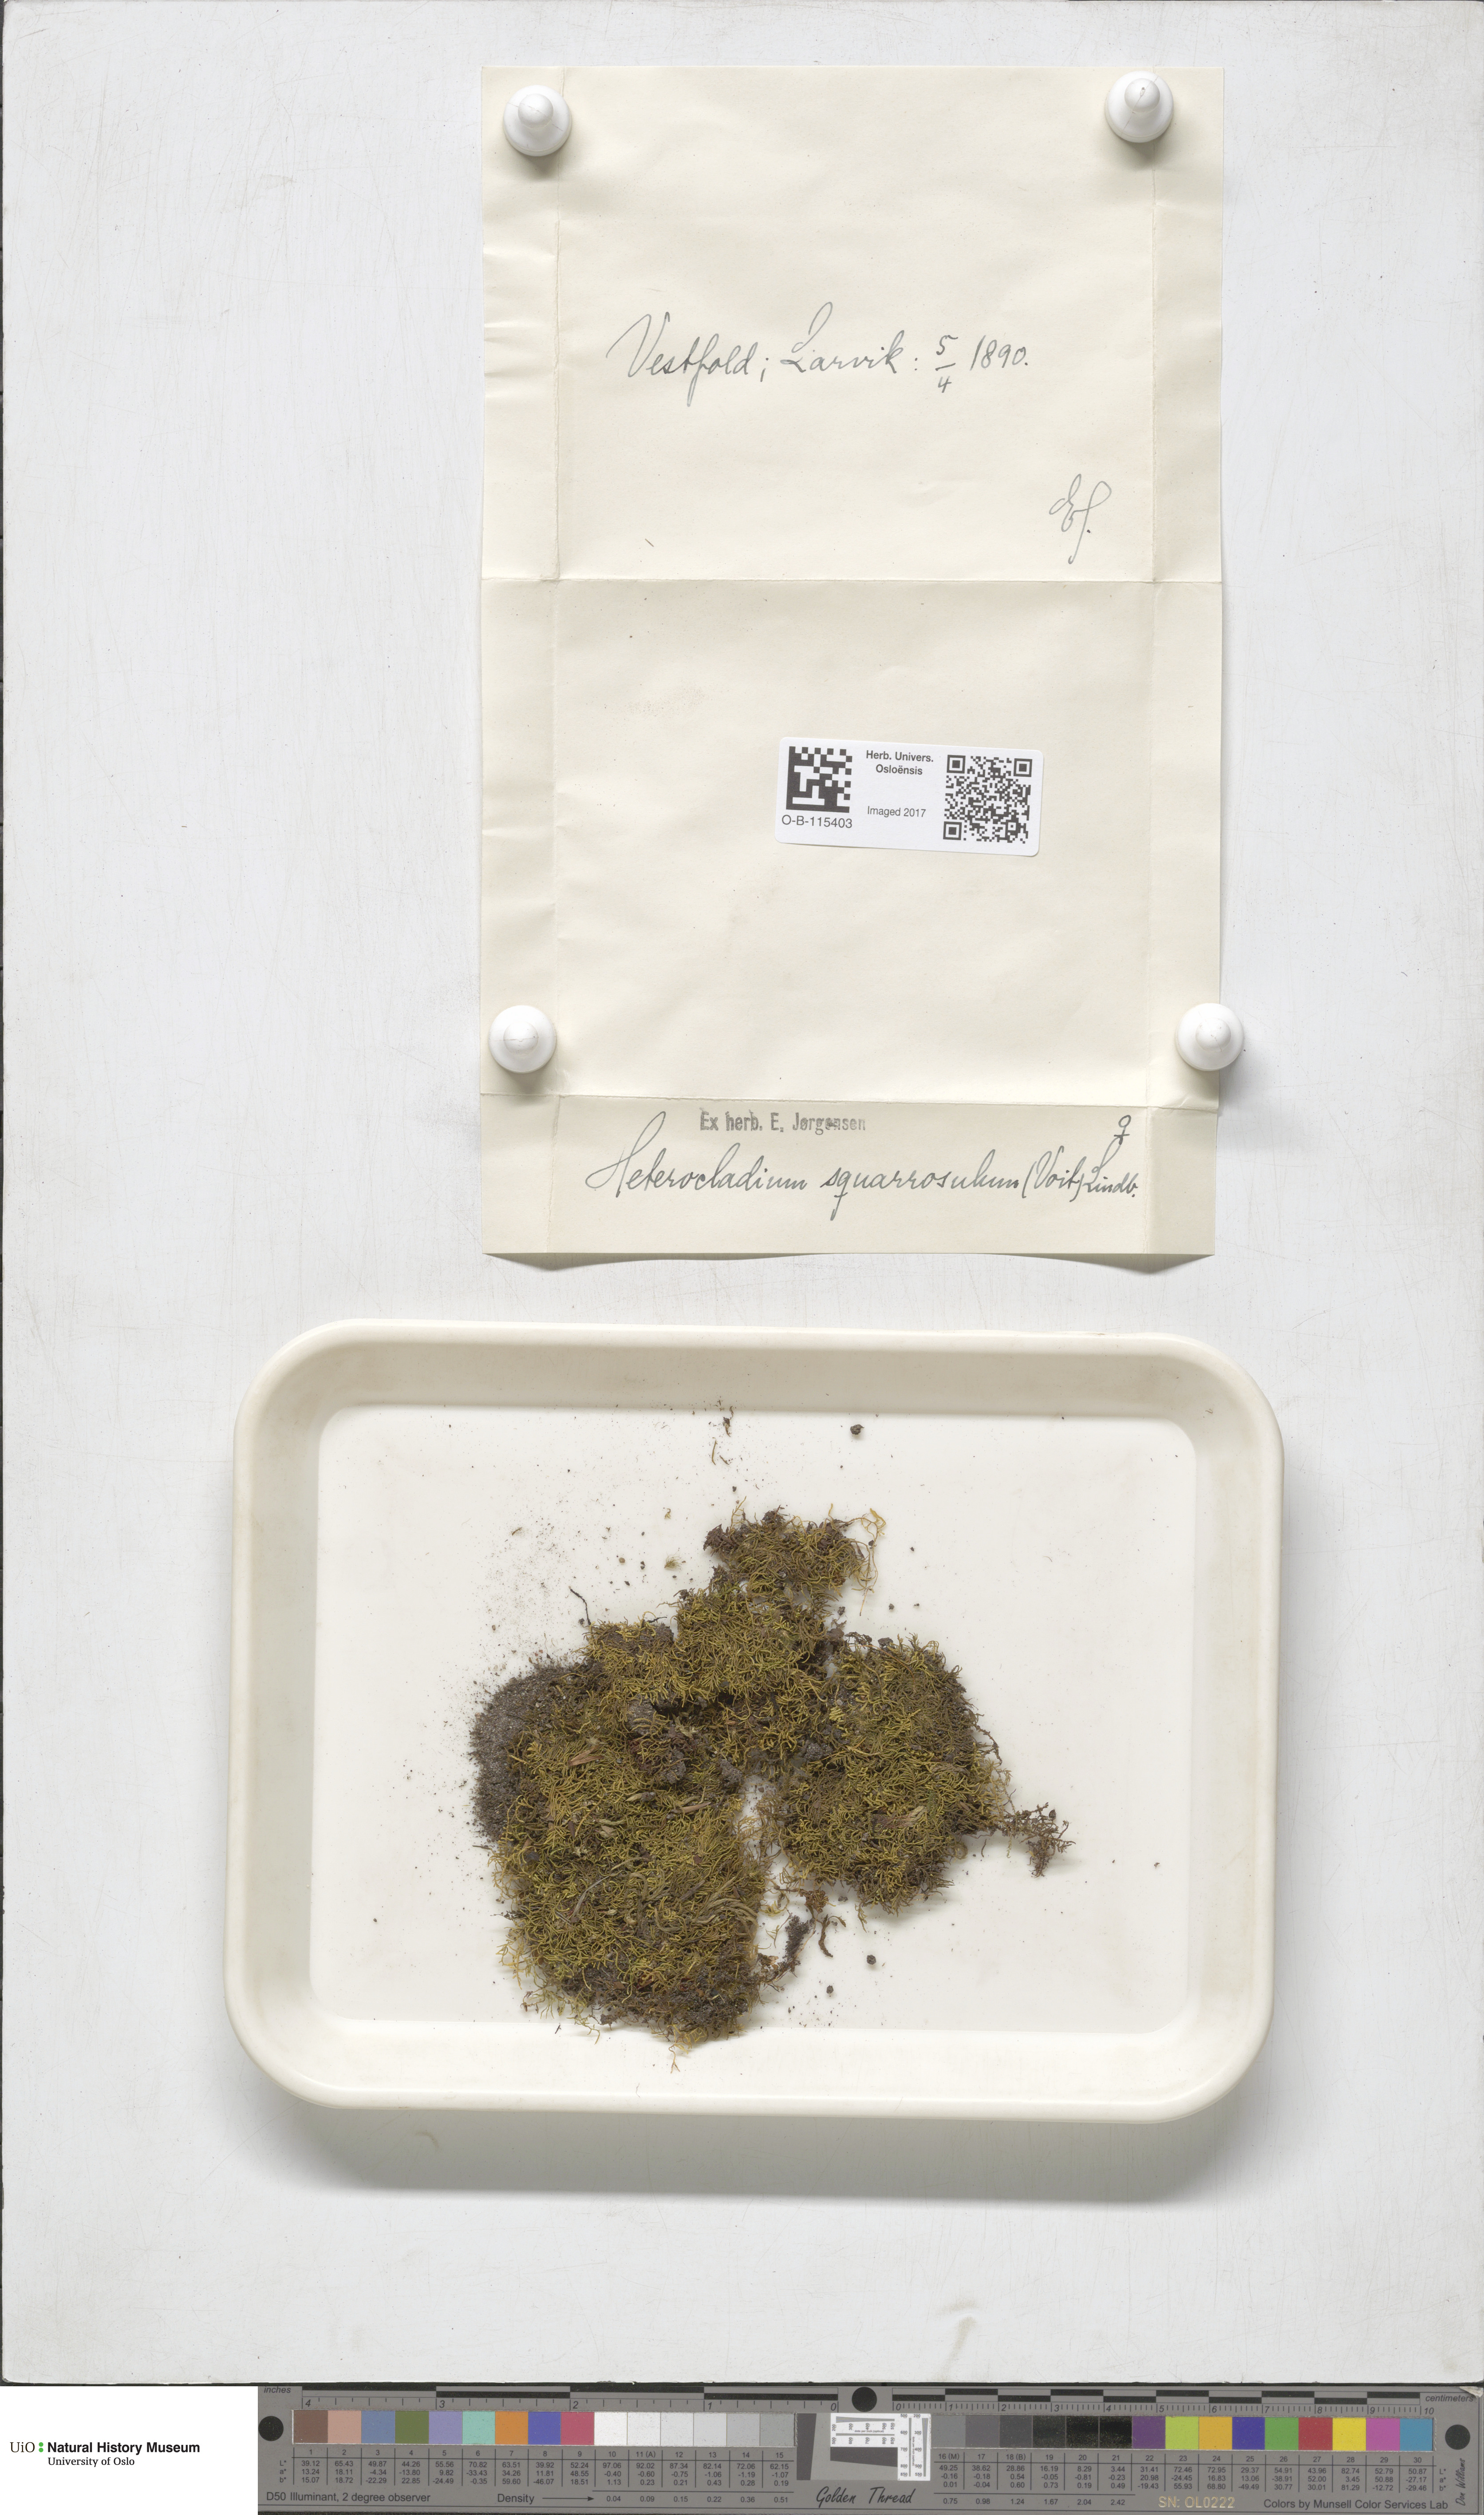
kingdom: Plantae
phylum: Bryophyta
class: Bryopsida
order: Hypnales
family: Heterocladiellaceae
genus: Heterocladiella
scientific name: Heterocladiella dimorpha
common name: Dimorphous tamarisk-moss
